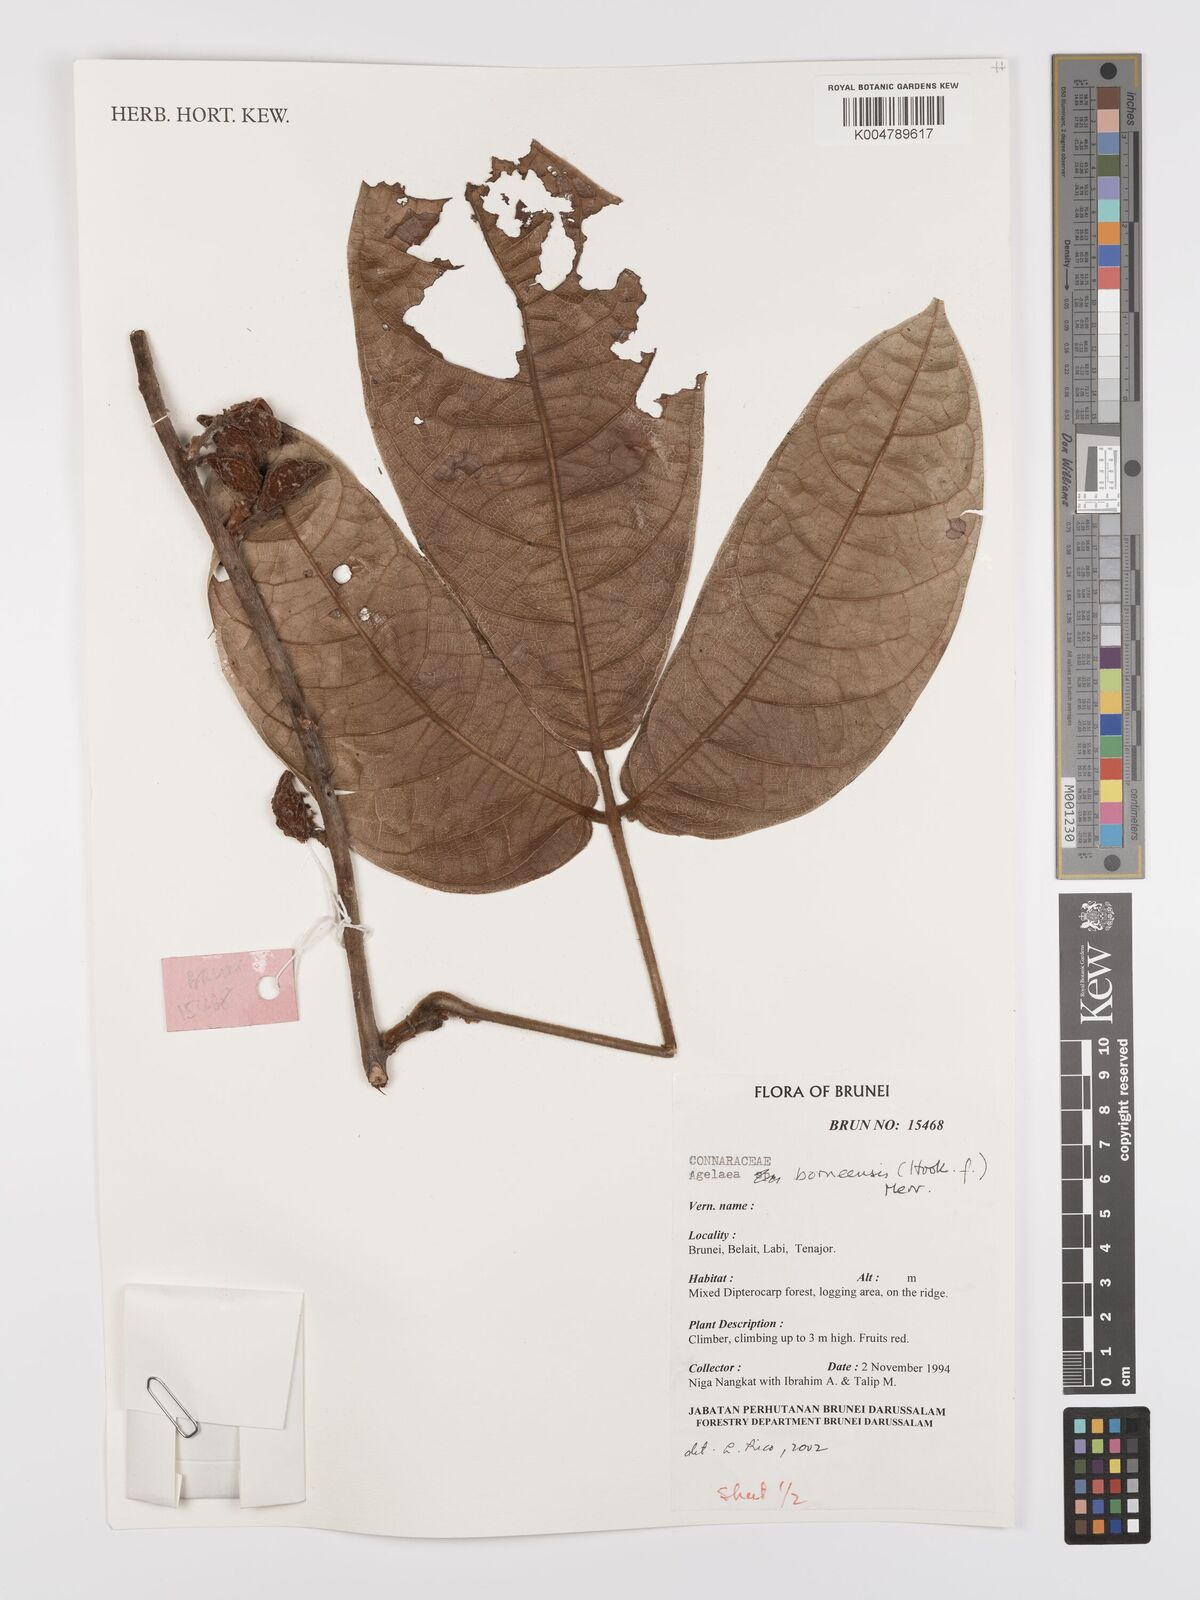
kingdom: Plantae
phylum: Tracheophyta
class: Magnoliopsida
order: Oxalidales
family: Connaraceae
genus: Agelaea
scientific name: Agelaea borneensis
